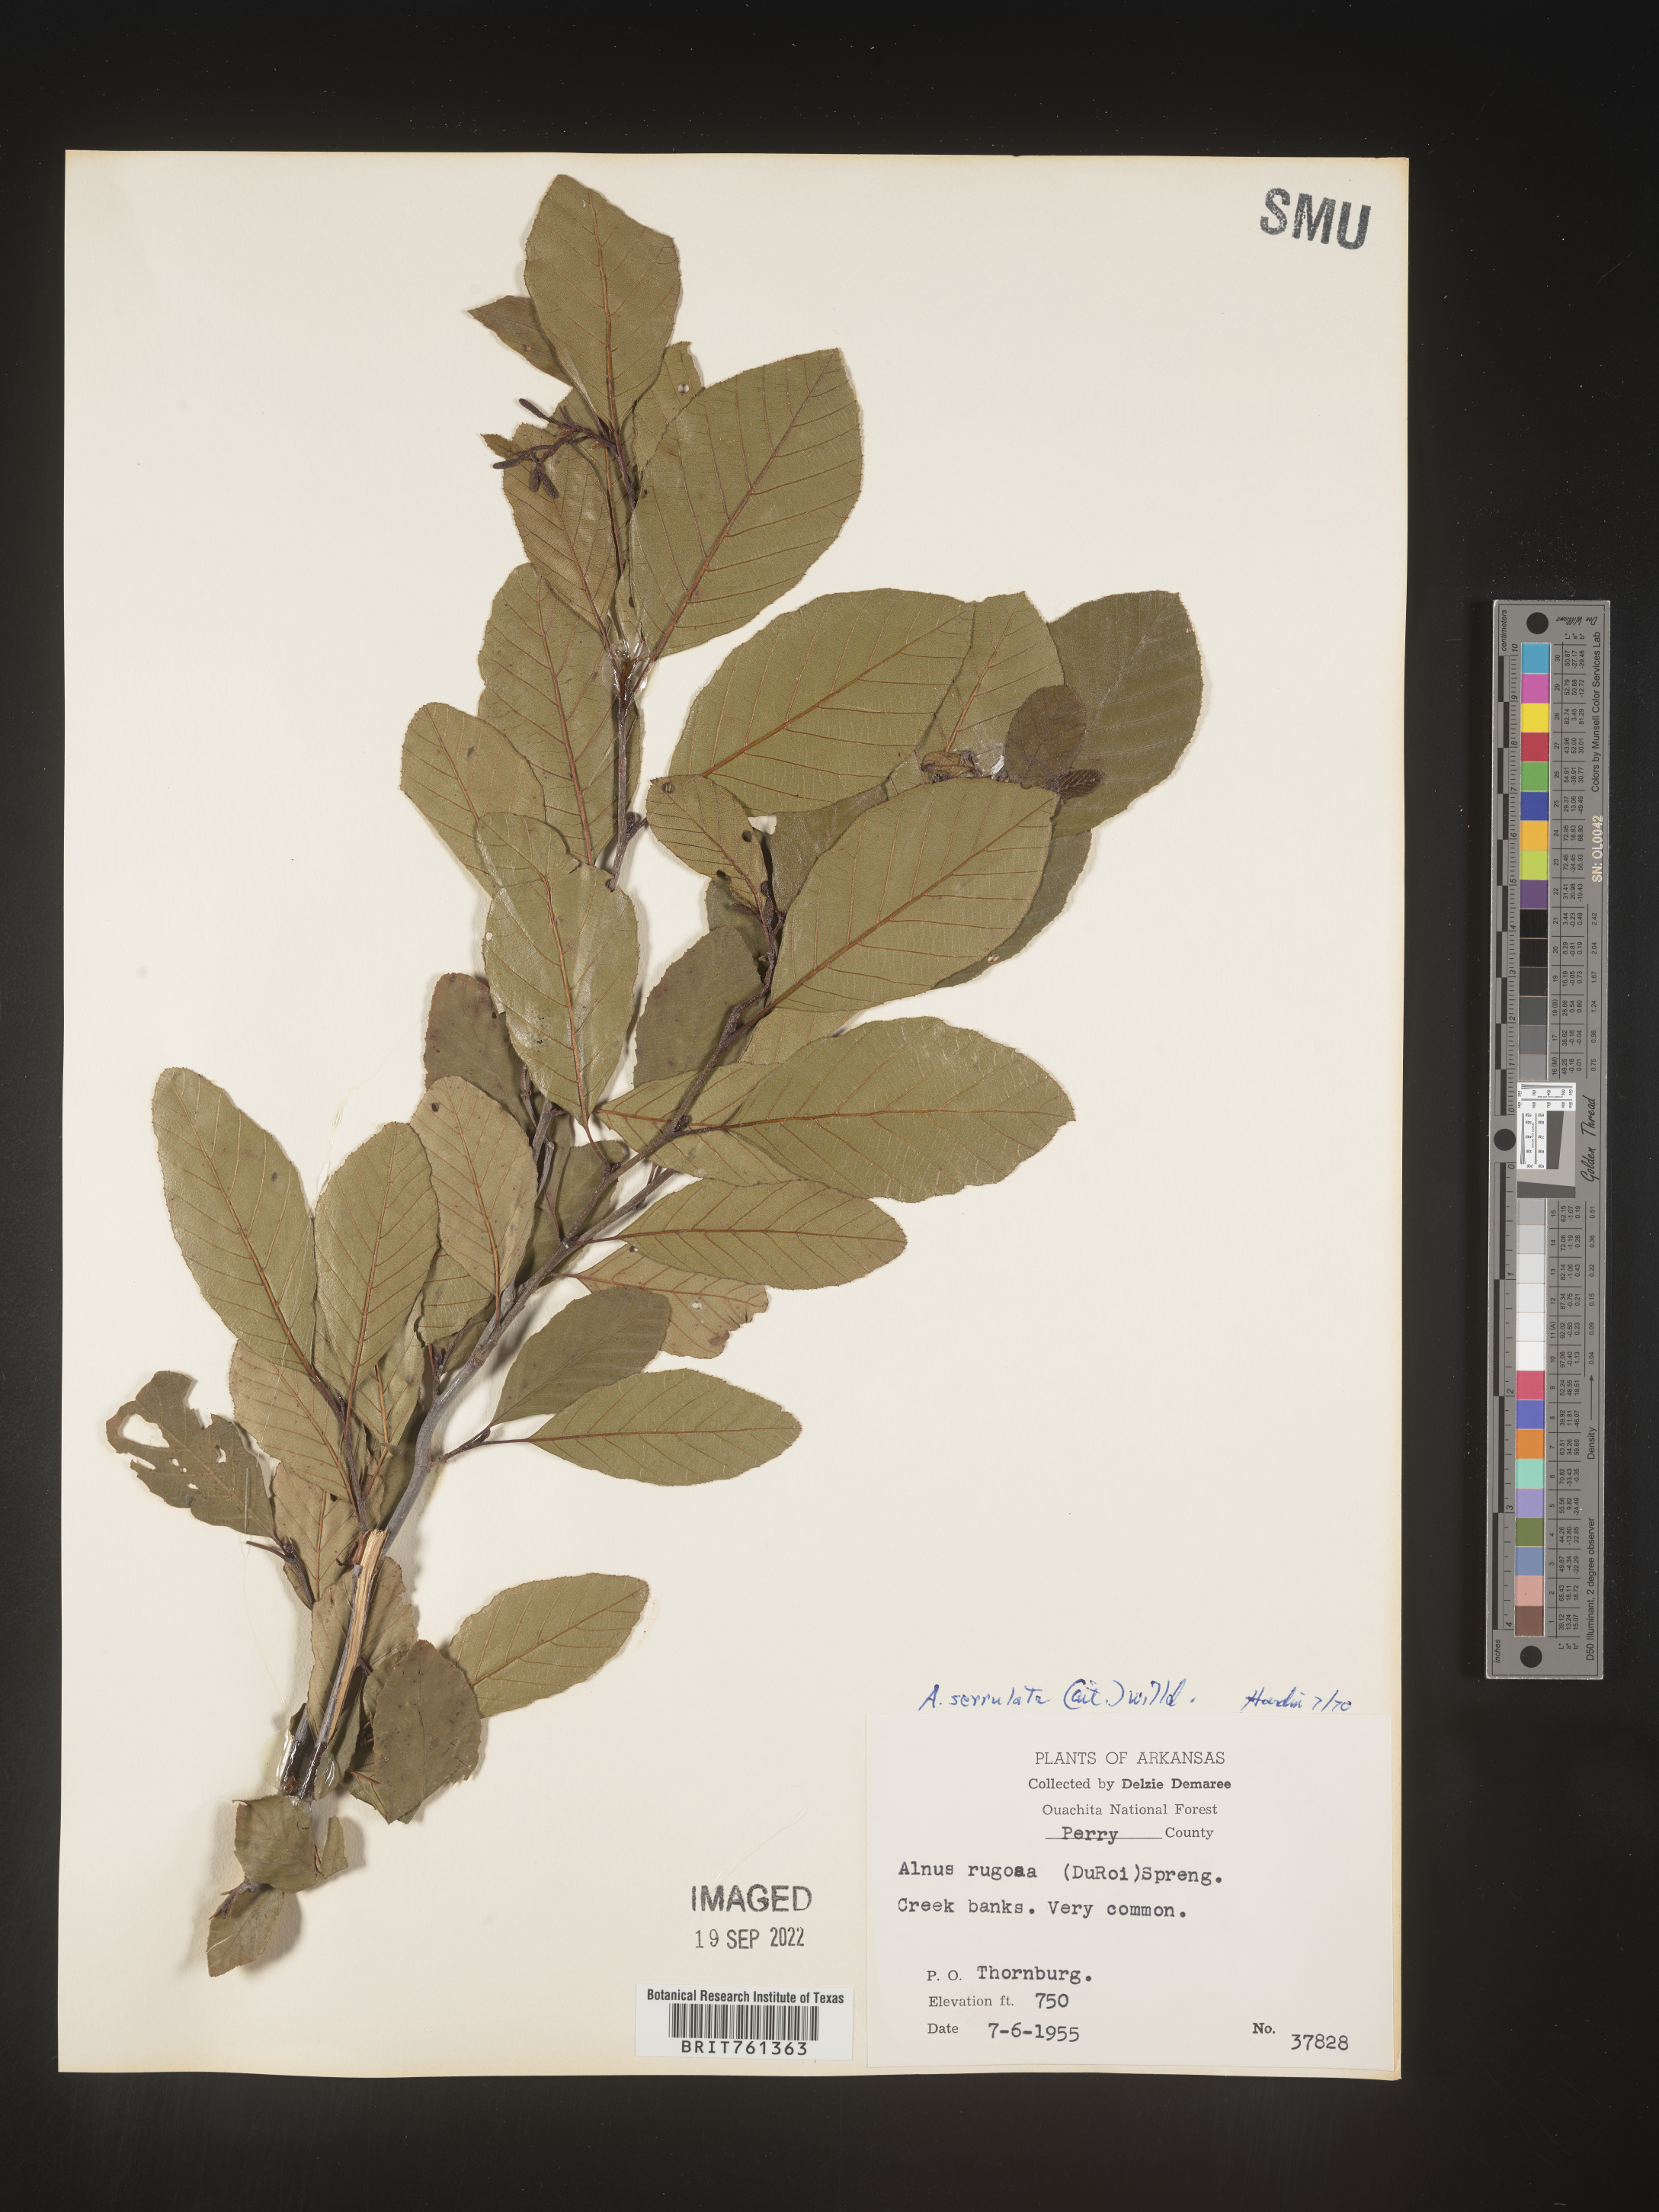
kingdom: Plantae
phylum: Tracheophyta
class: Magnoliopsida
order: Fagales
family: Betulaceae
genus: Alnus
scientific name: Alnus serrulata
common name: Hazel alder
